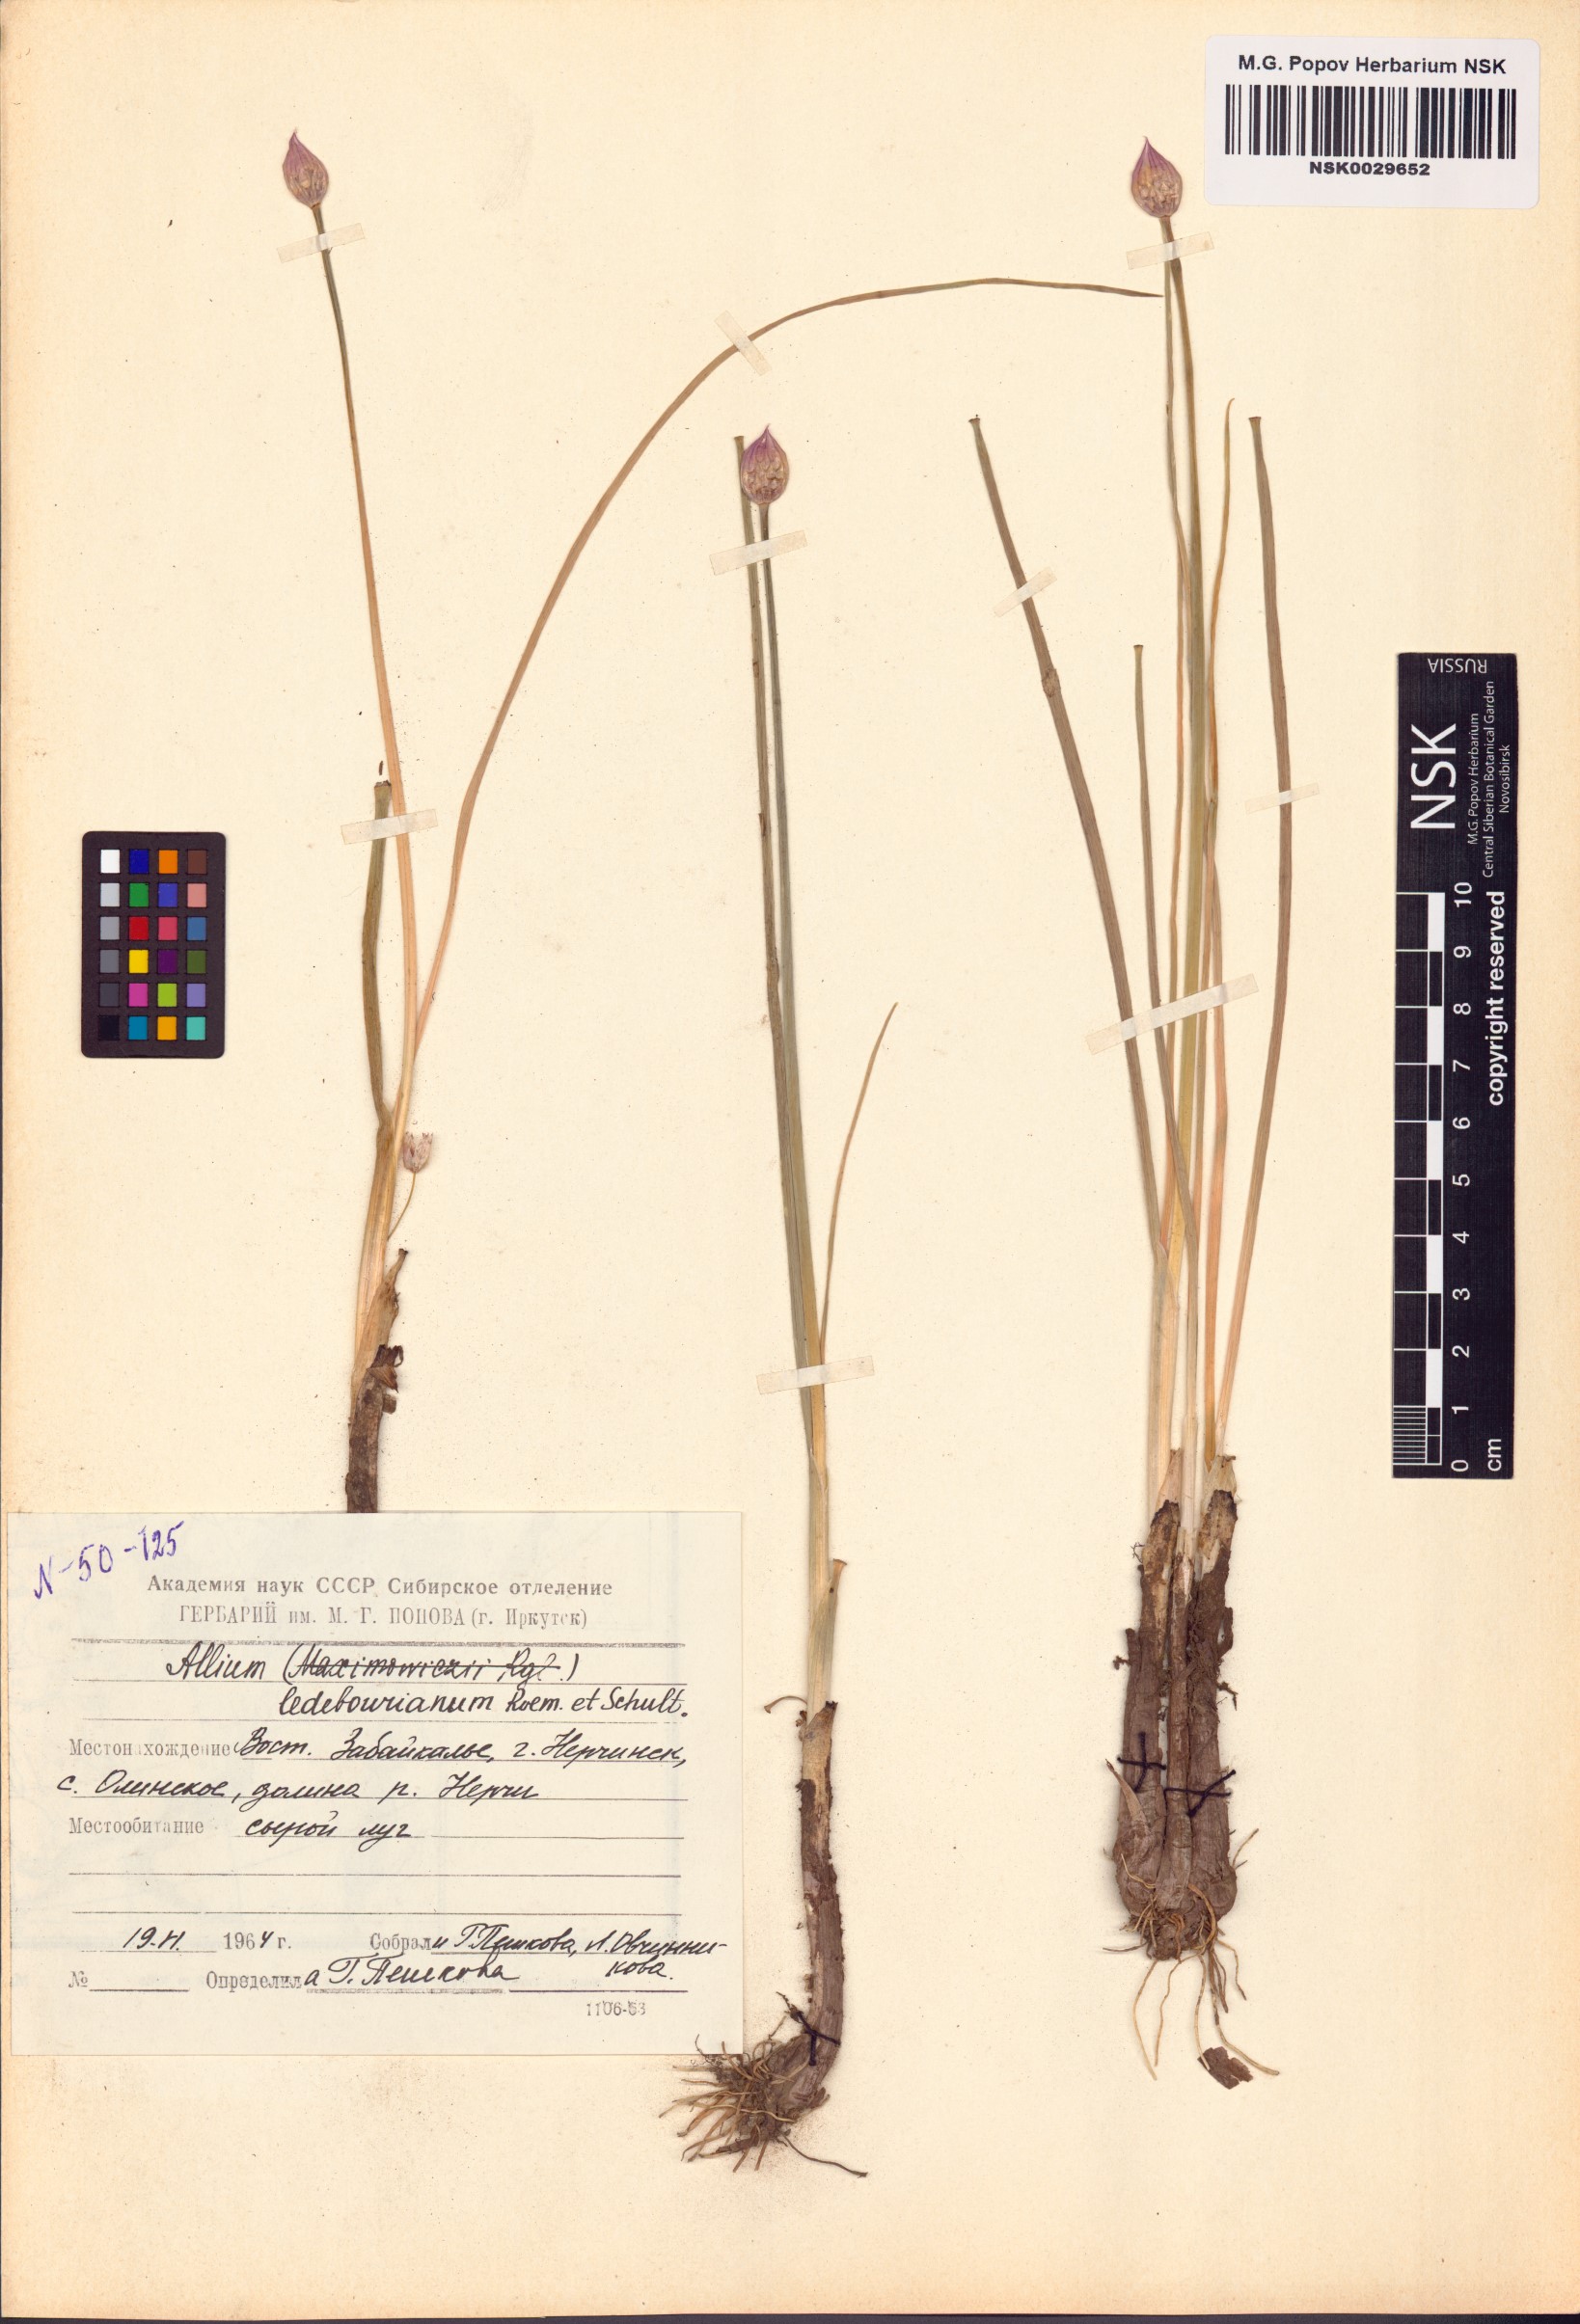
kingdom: Plantae
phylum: Tracheophyta
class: Liliopsida
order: Asparagales
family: Amaryllidaceae
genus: Allium
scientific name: Allium ledebourianum
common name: Ledebour chive
